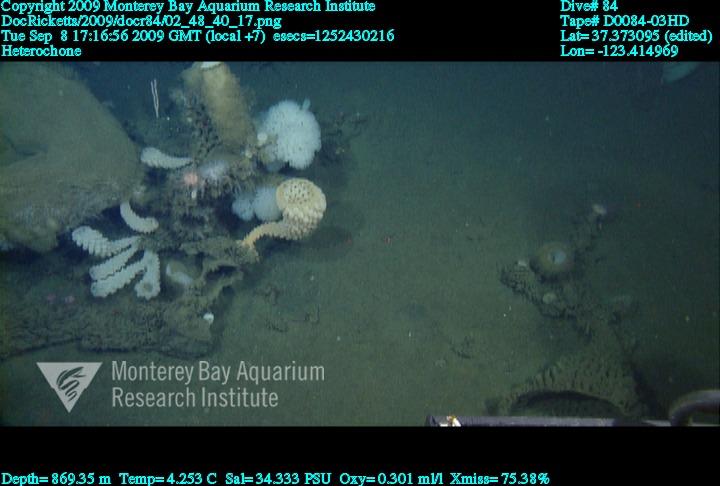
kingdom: Animalia
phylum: Porifera
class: Hexactinellida
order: Sceptrulophora
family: Aphrocallistidae
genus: Heterochone
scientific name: Heterochone
